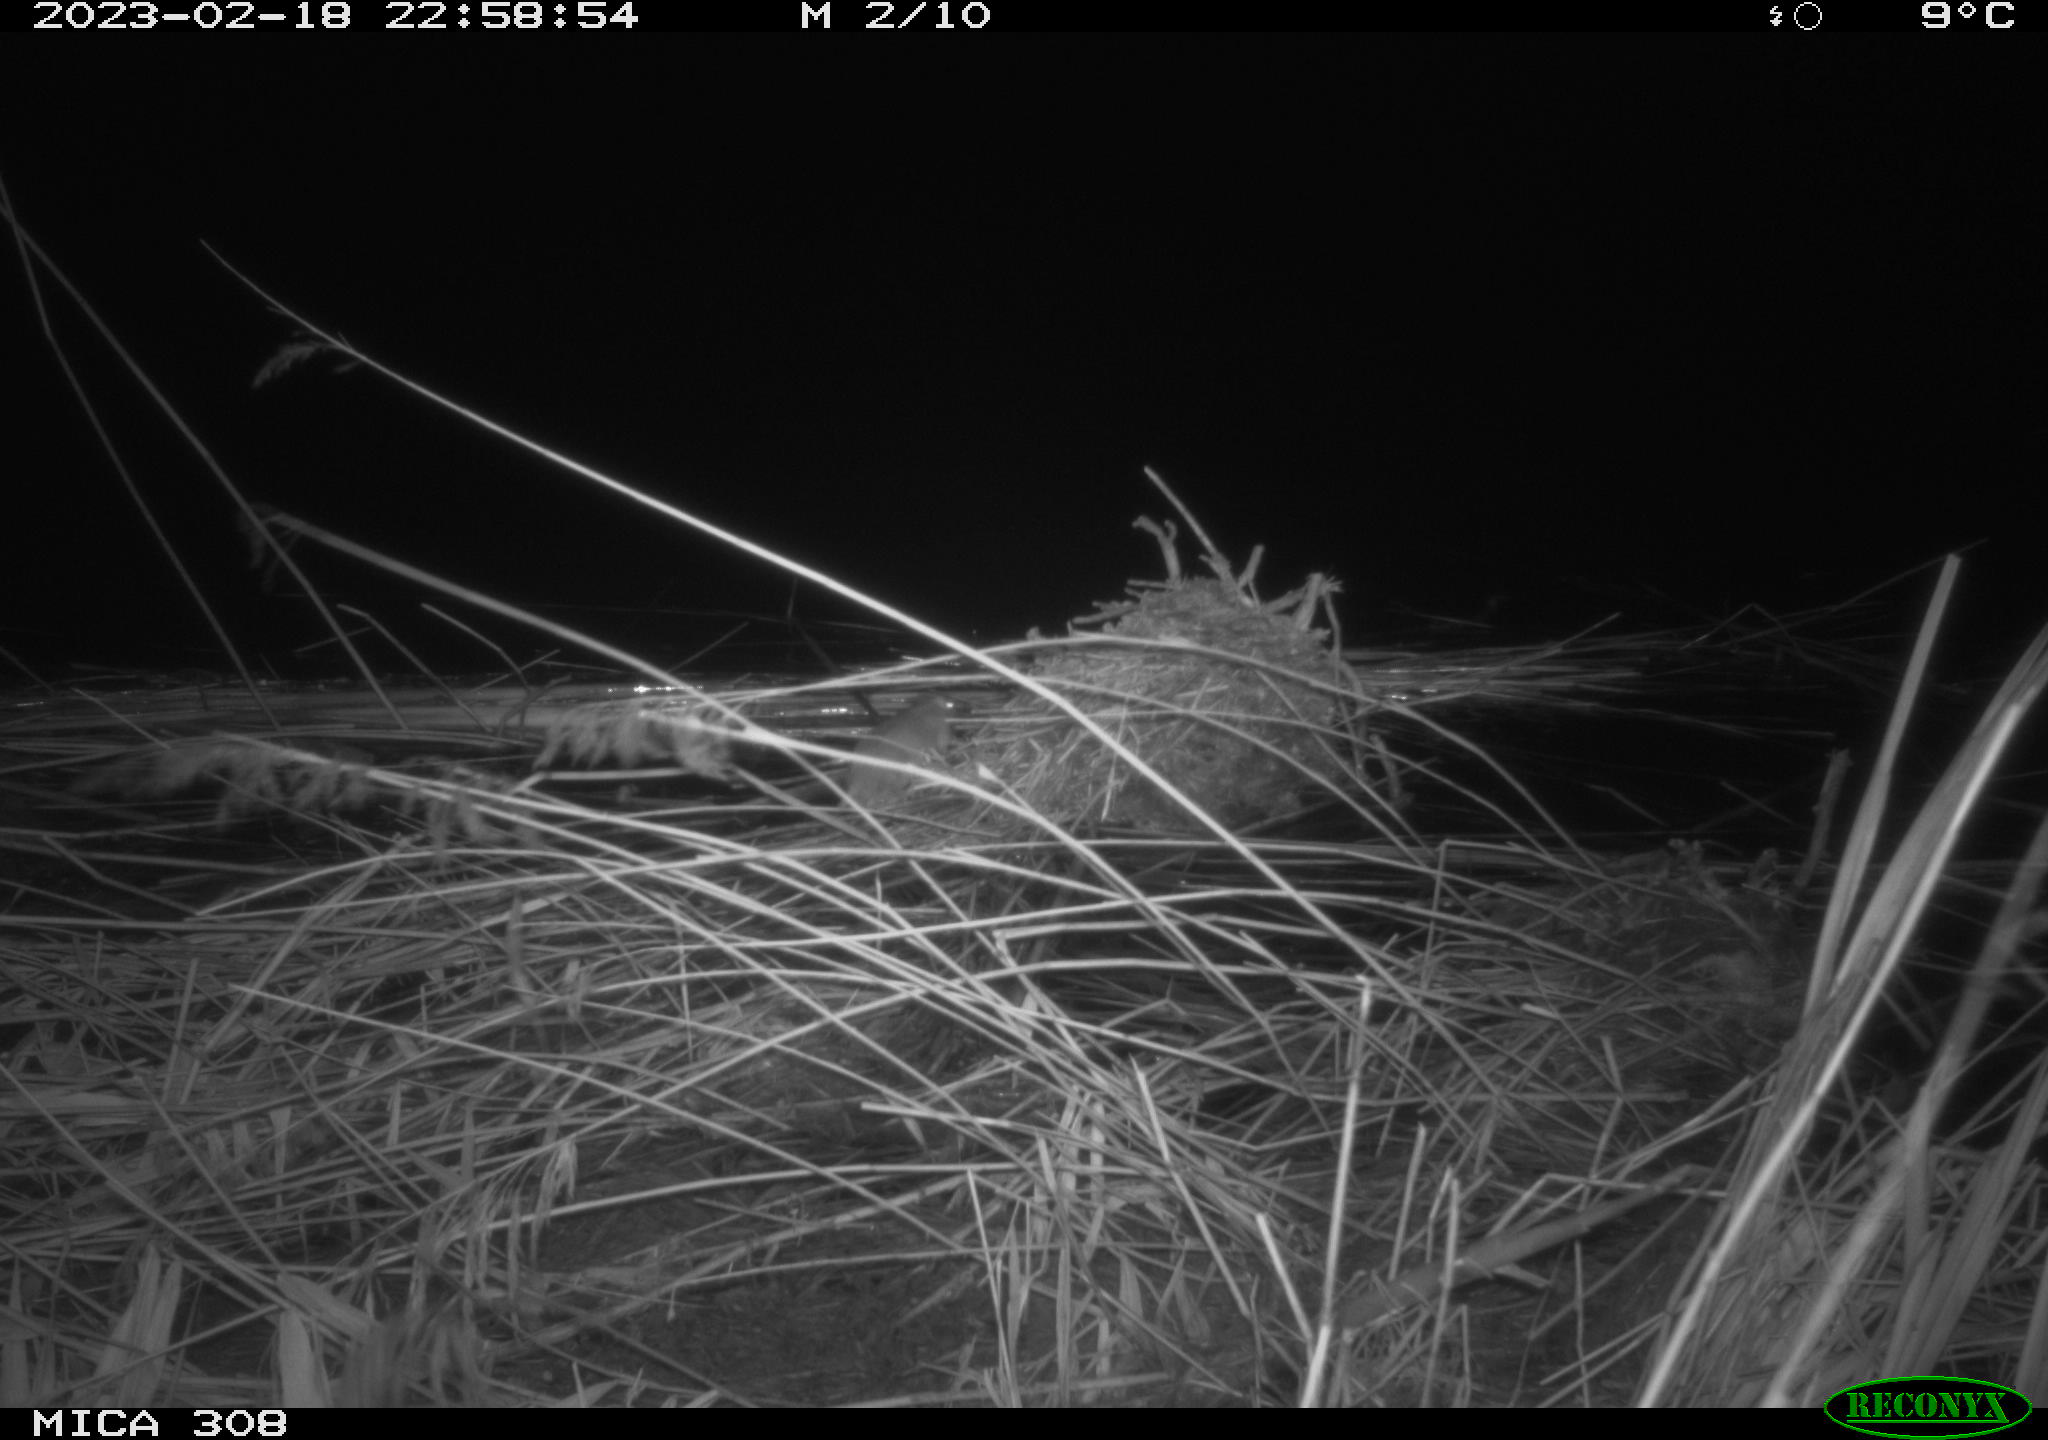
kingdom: Animalia
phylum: Chordata
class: Mammalia
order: Rodentia
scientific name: Rodentia
